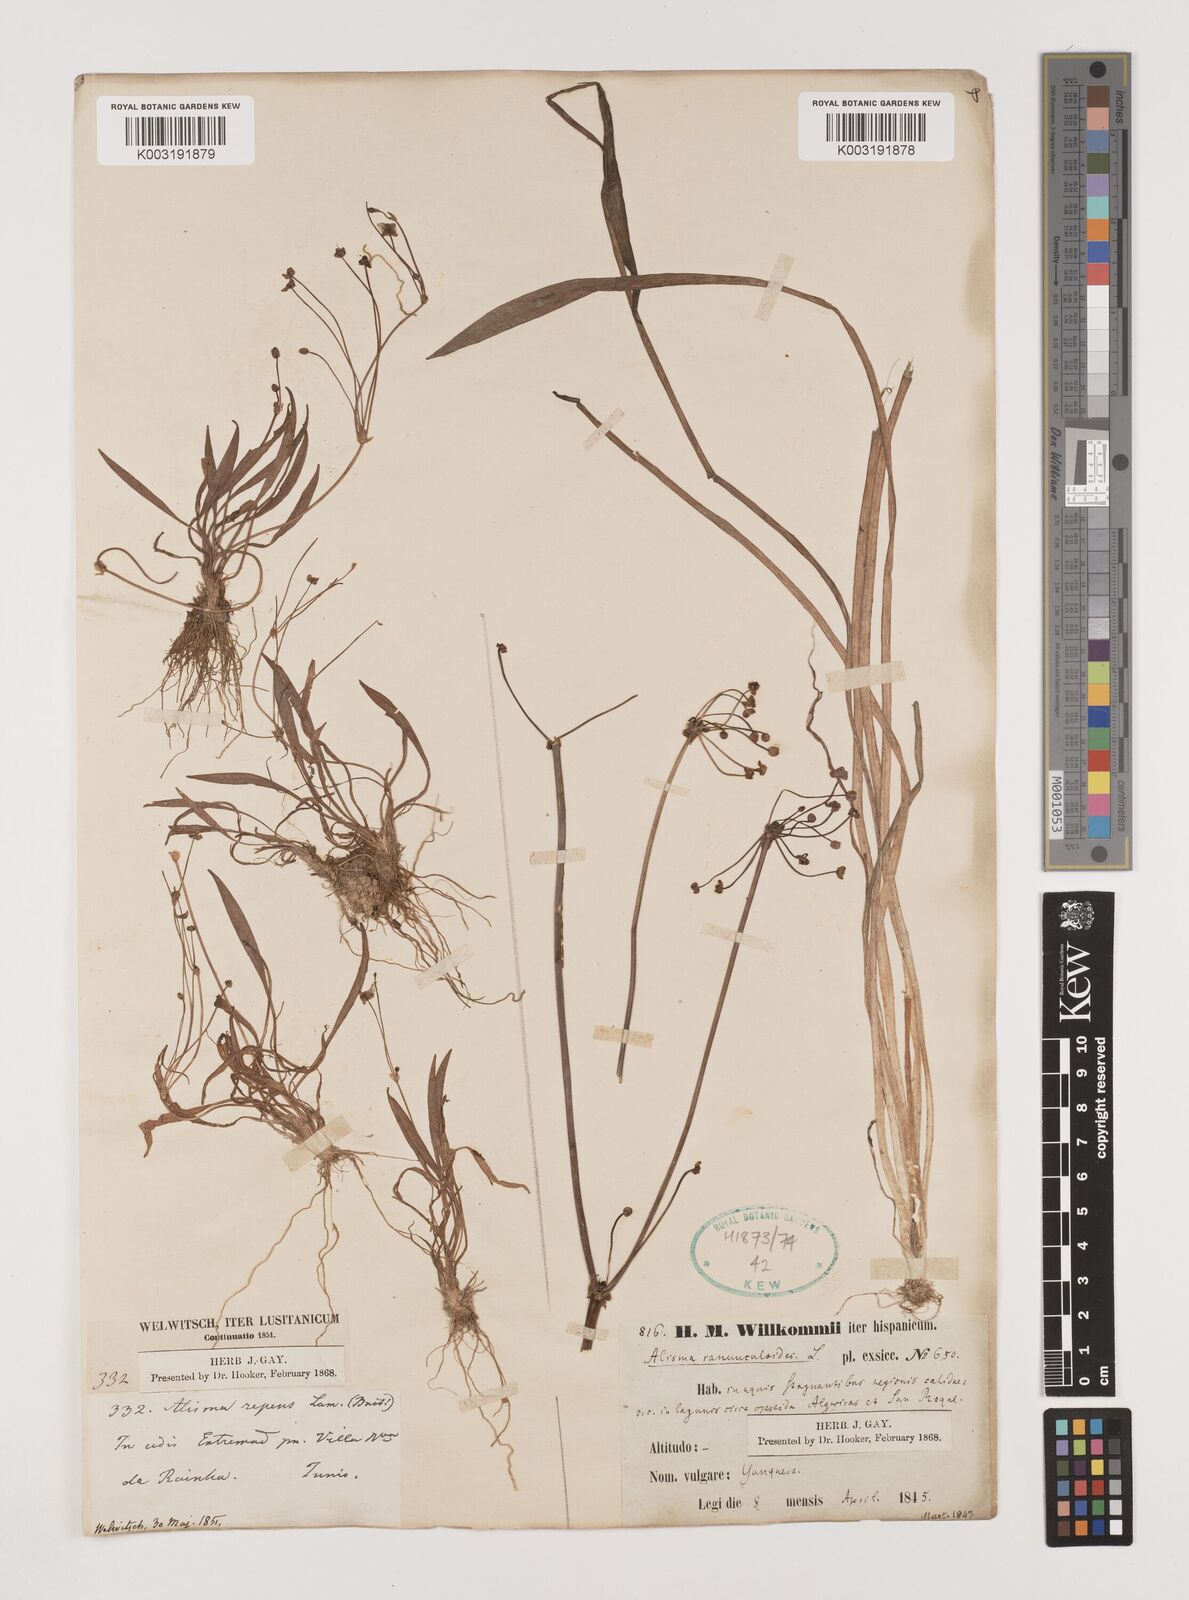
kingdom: Plantae
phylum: Tracheophyta
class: Liliopsida
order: Alismatales
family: Alismataceae
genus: Baldellia
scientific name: Baldellia ranunculoides
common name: Lesser water-plantain
